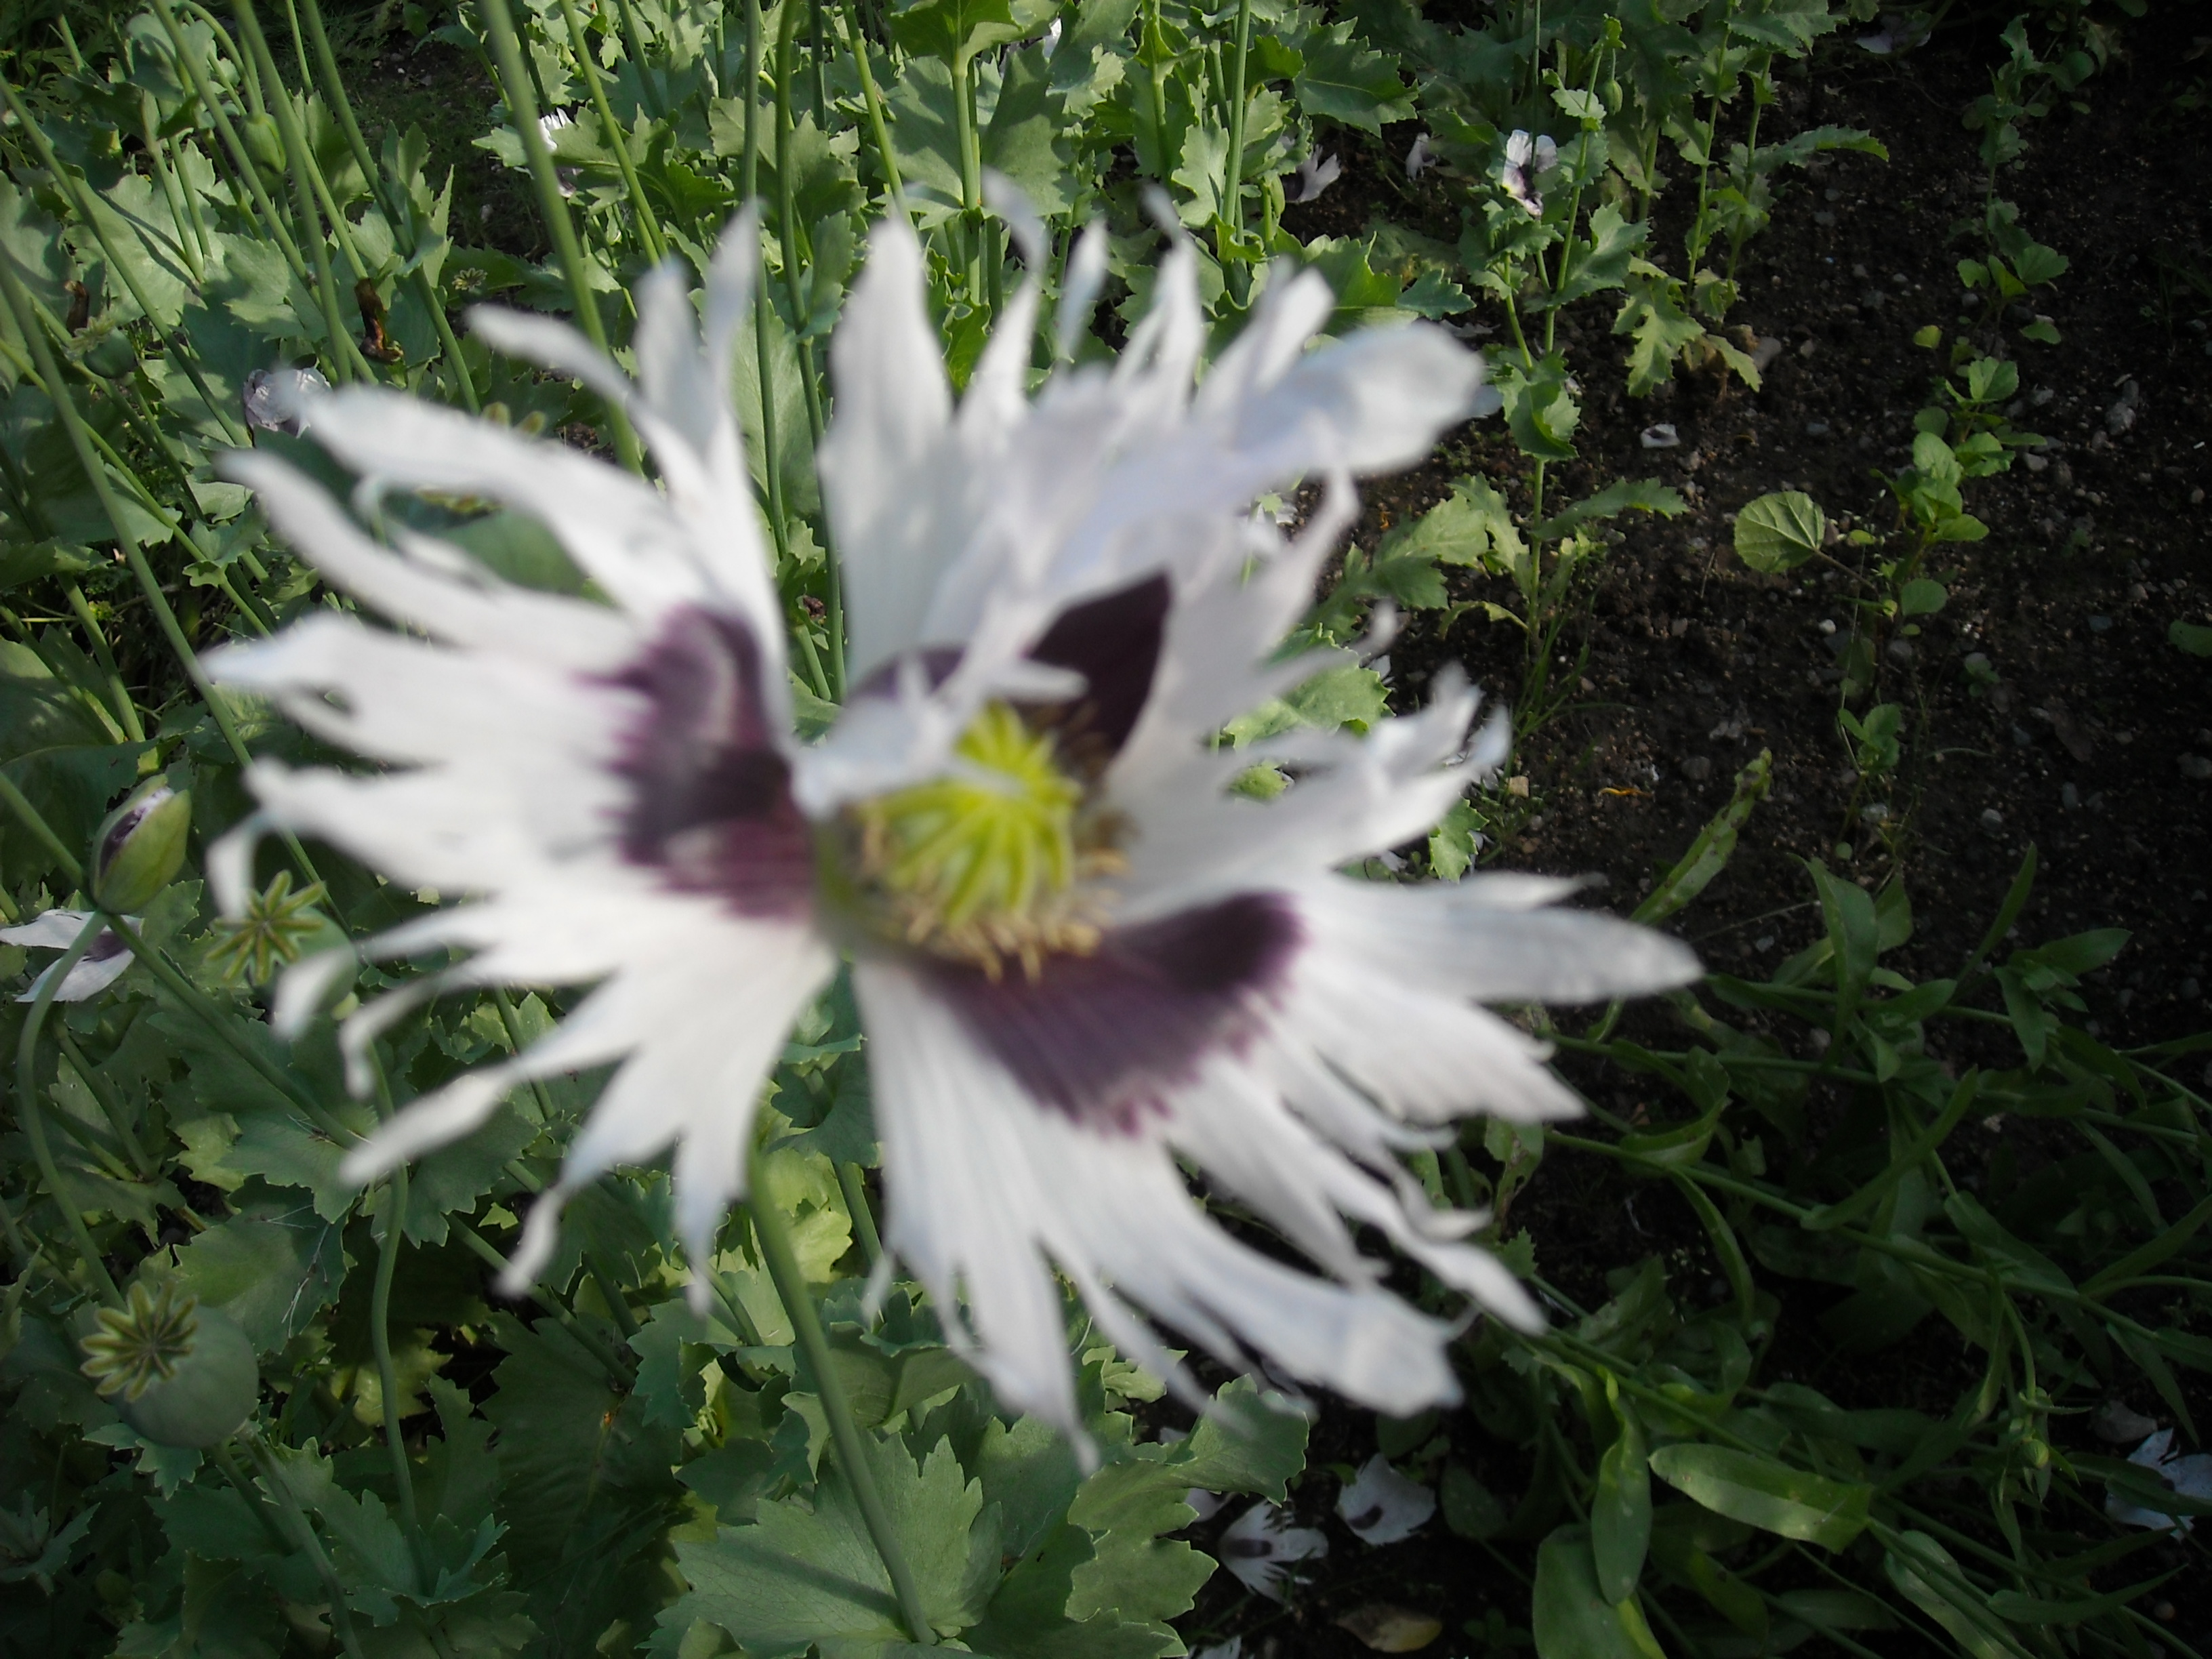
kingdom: Plantae
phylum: Tracheophyta
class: Magnoliopsida
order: Ranunculales
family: Papaveraceae
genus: Papaver
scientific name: Papaver somniferum
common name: Opium poppy
